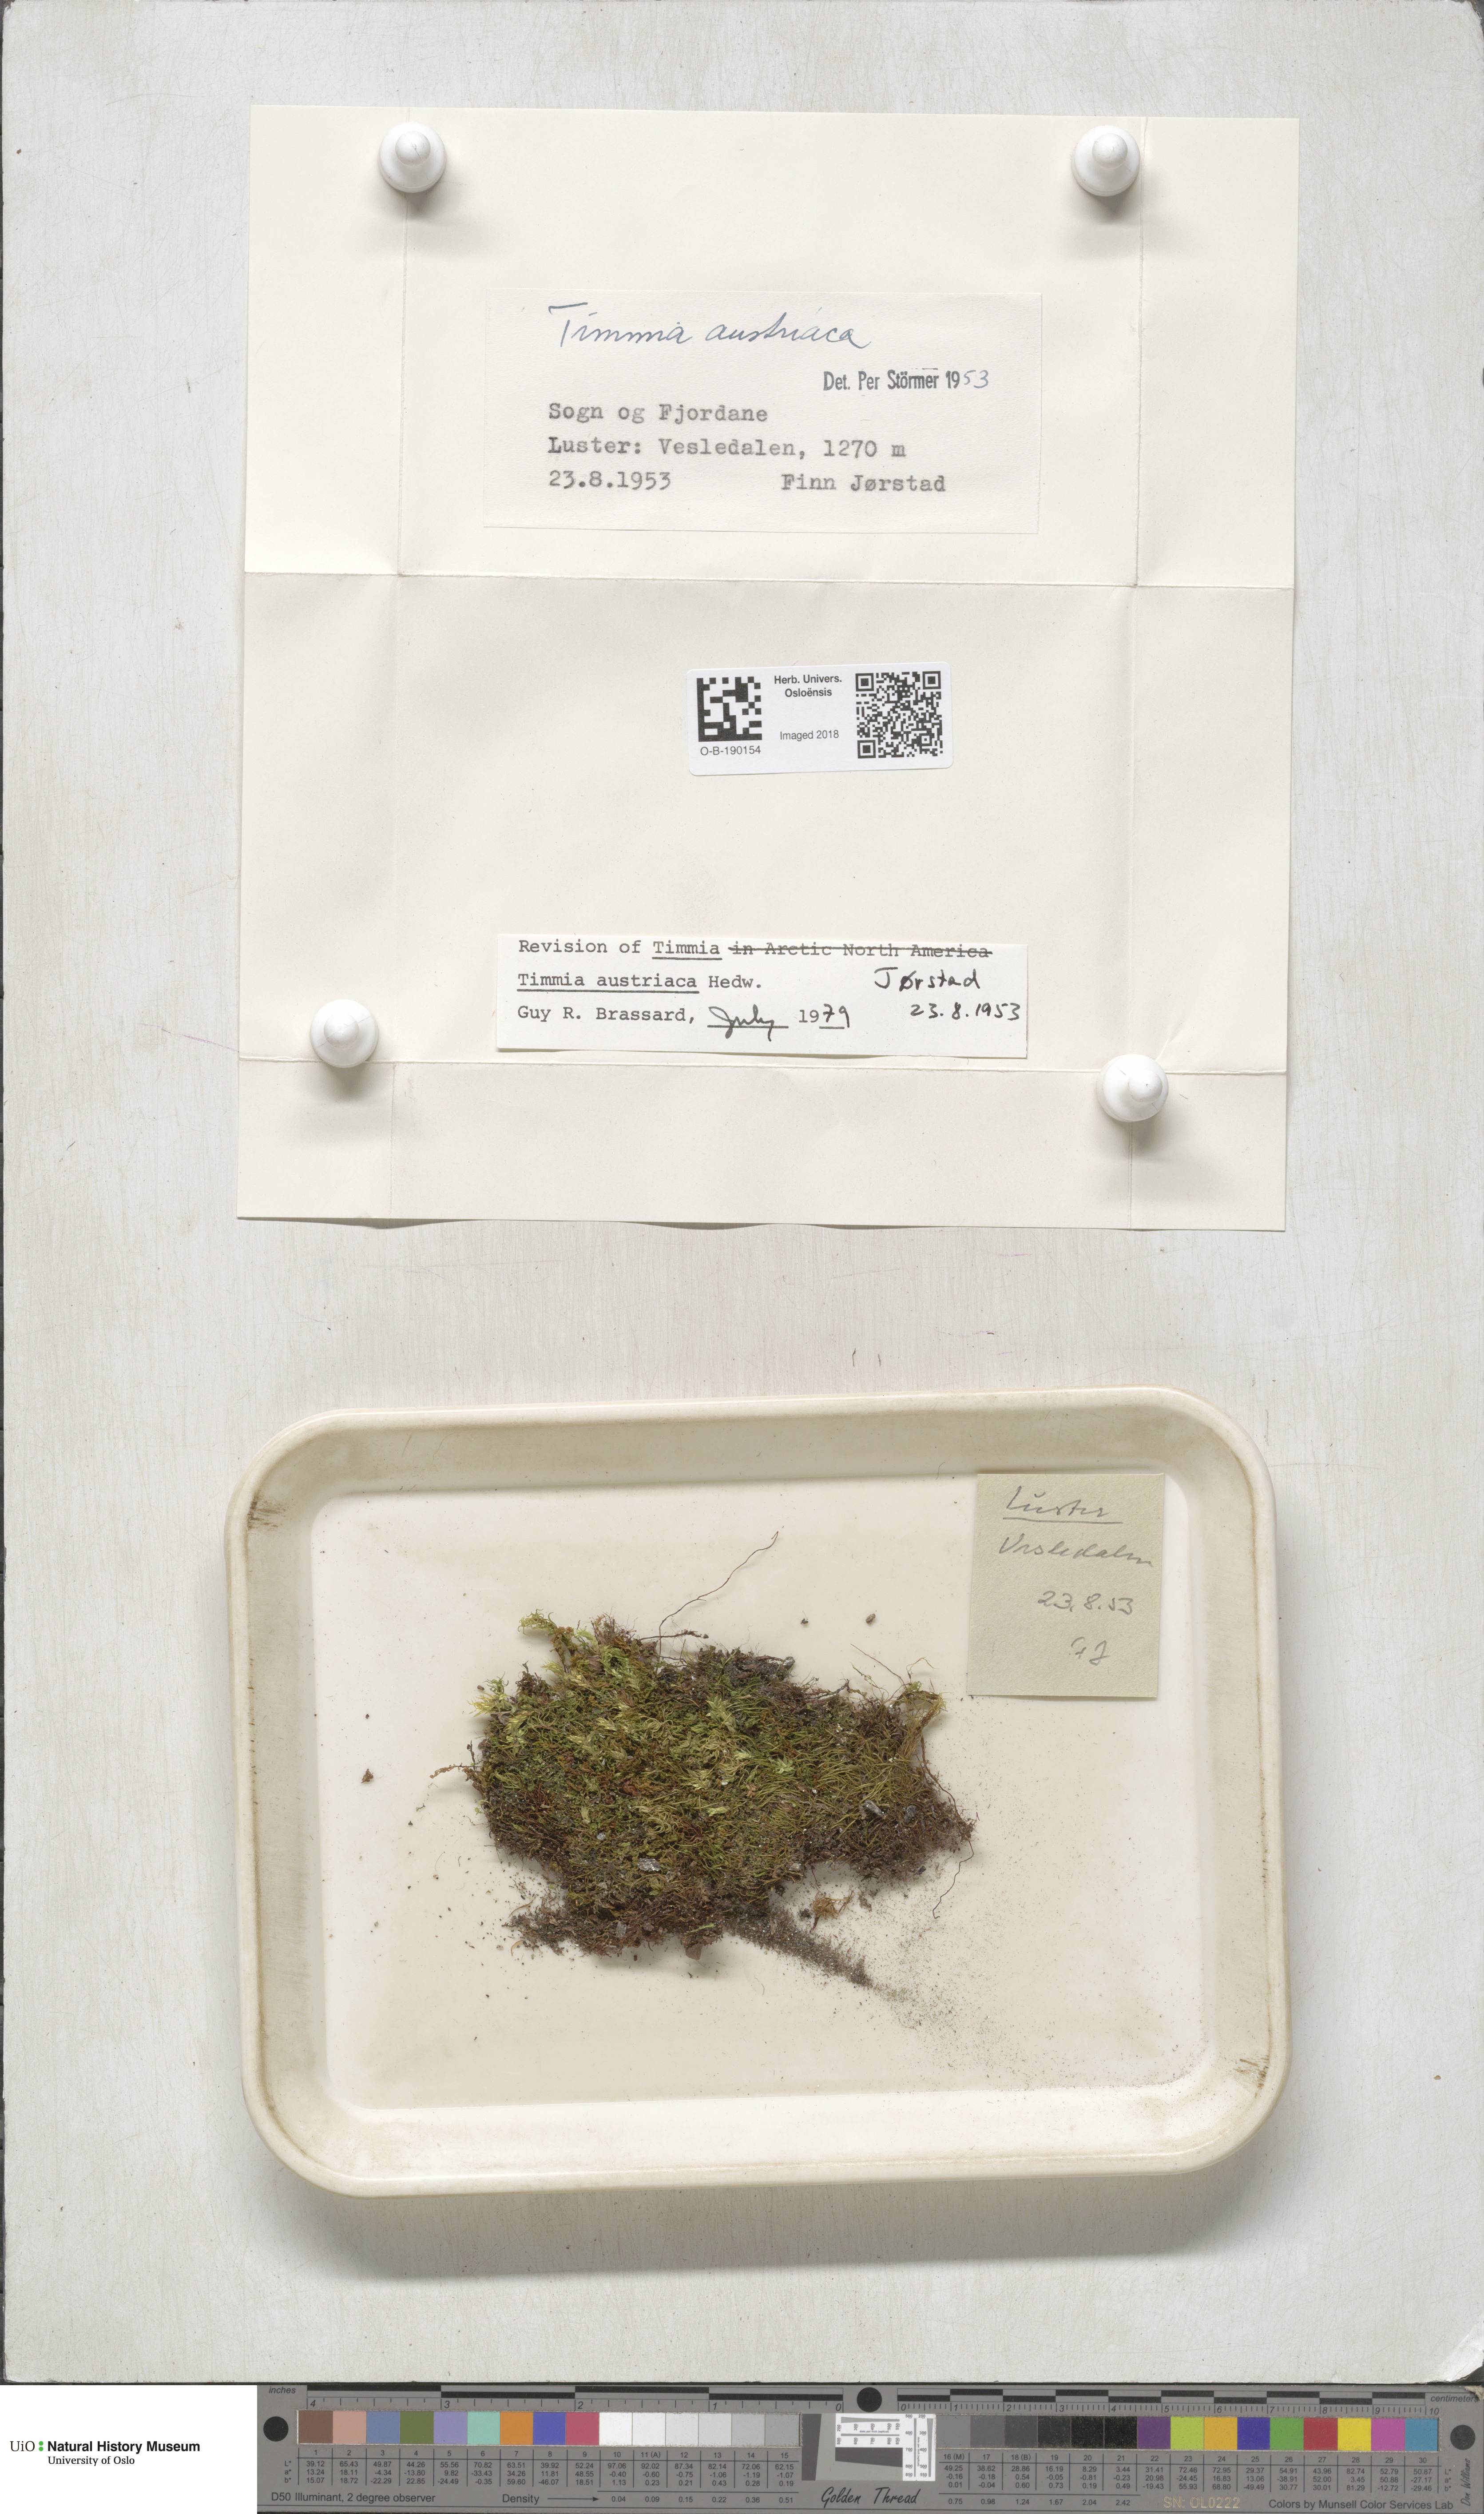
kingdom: Plantae
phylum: Bryophyta
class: Bryopsida
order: Timmiales
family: Timmiaceae
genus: Timmia
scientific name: Timmia austriaca
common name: Austrian timmia
